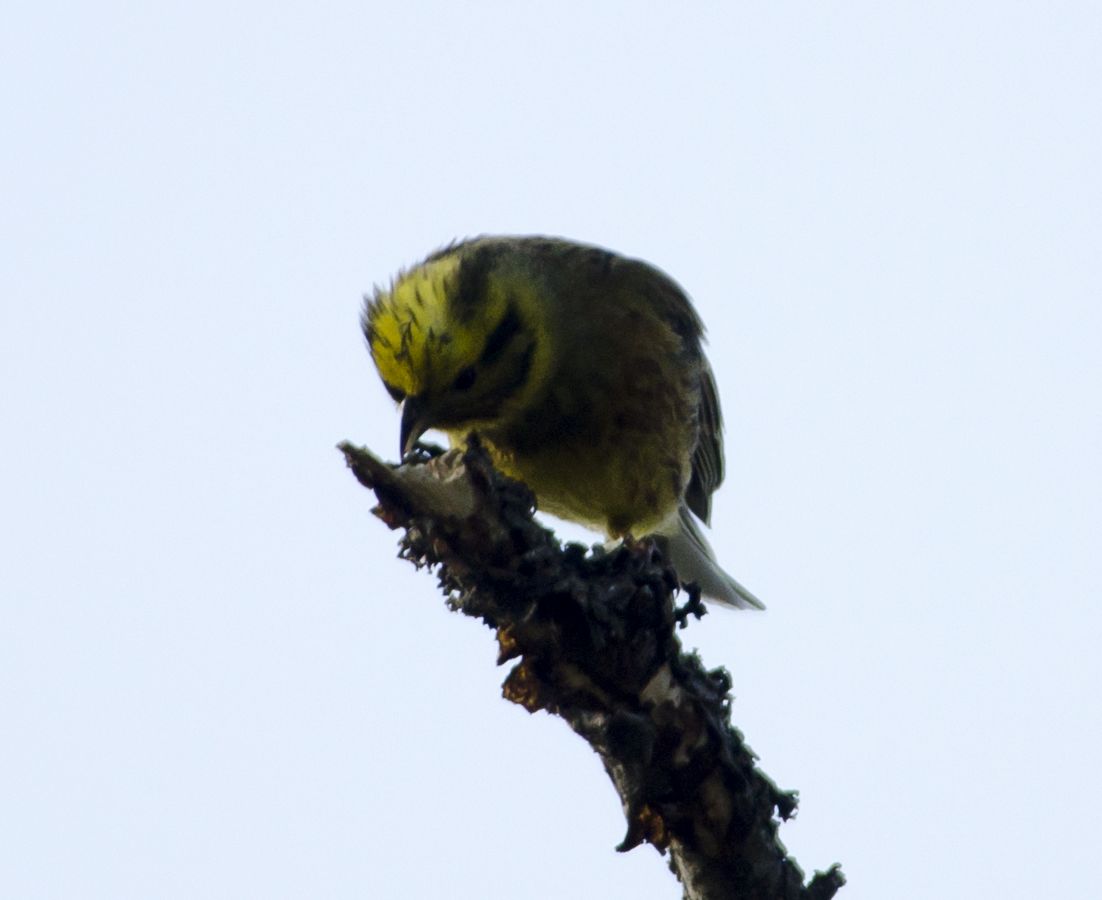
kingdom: Animalia
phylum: Chordata
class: Aves
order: Passeriformes
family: Emberizidae
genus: Emberiza
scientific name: Emberiza citrinella
